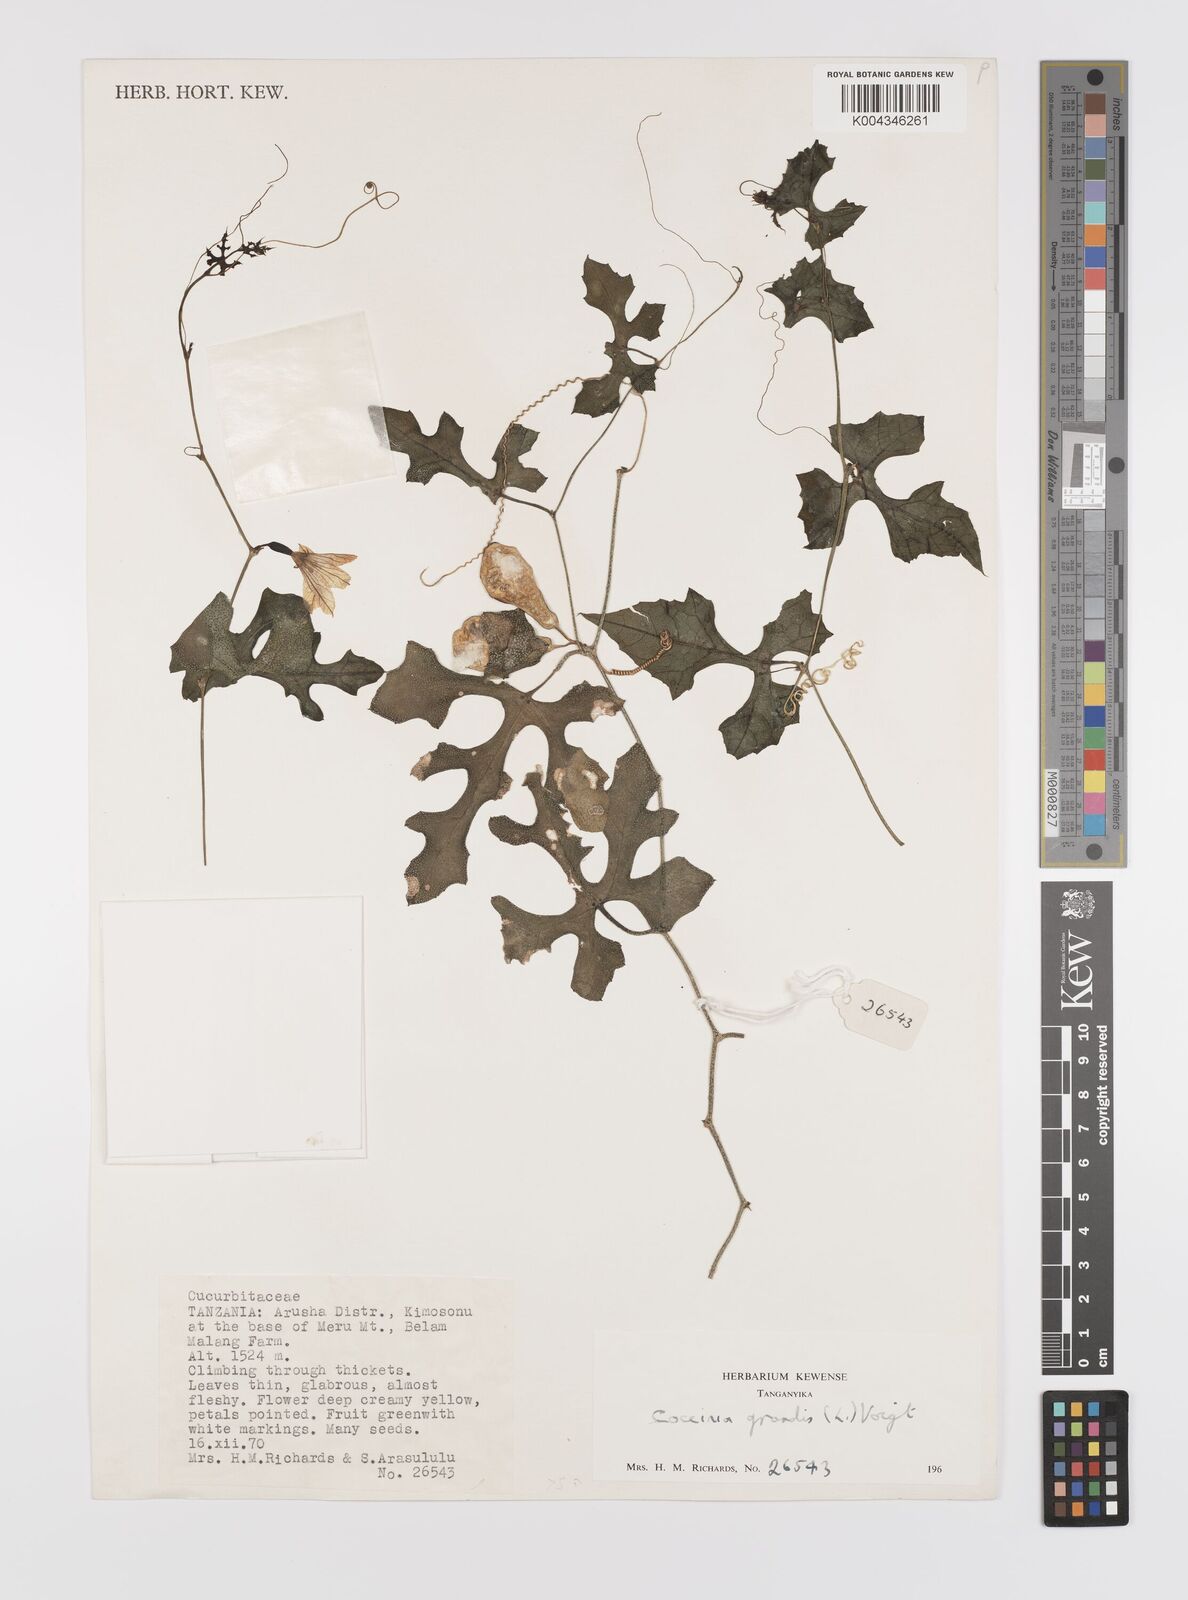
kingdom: Plantae
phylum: Tracheophyta
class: Magnoliopsida
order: Cucurbitales
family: Cucurbitaceae
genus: Coccinia
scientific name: Coccinia grandis
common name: Ivy gourd
